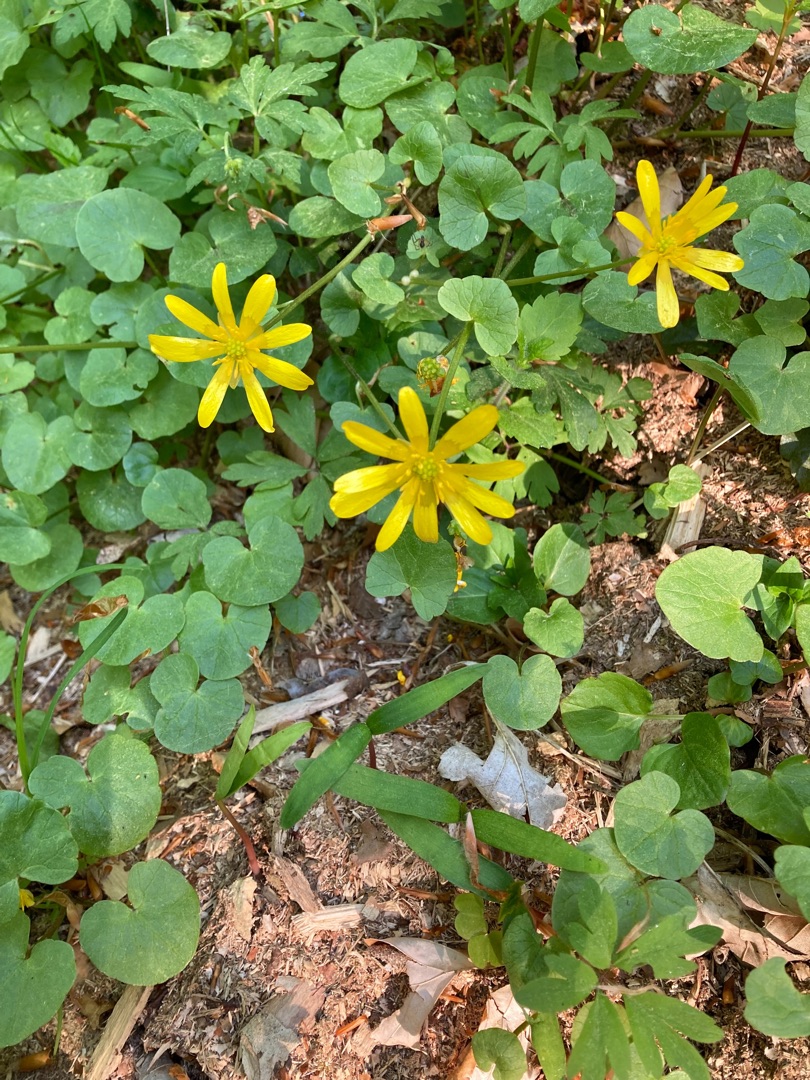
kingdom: Plantae
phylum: Tracheophyta
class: Magnoliopsida
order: Ranunculales
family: Ranunculaceae
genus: Ficaria
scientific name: Ficaria verna
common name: Vorterod
